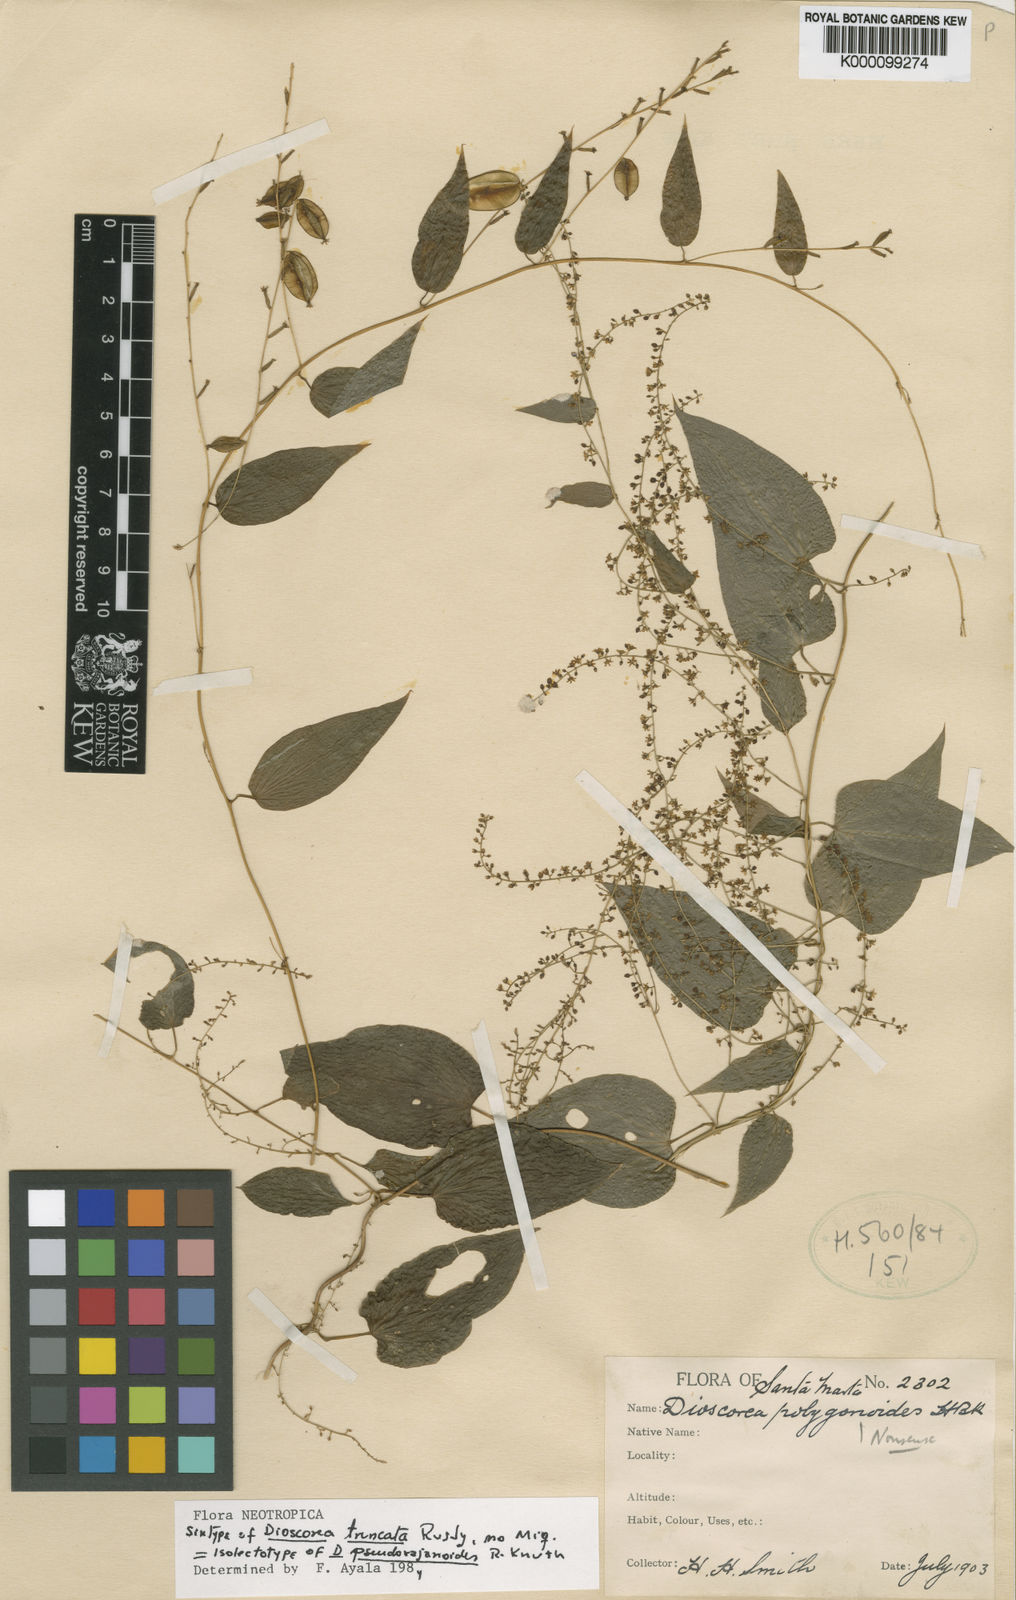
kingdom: Plantae
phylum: Tracheophyta
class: Liliopsida
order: Dioscoreales
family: Dioscoreaceae
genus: Dioscorea
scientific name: Dioscorea pseudorajanioides
